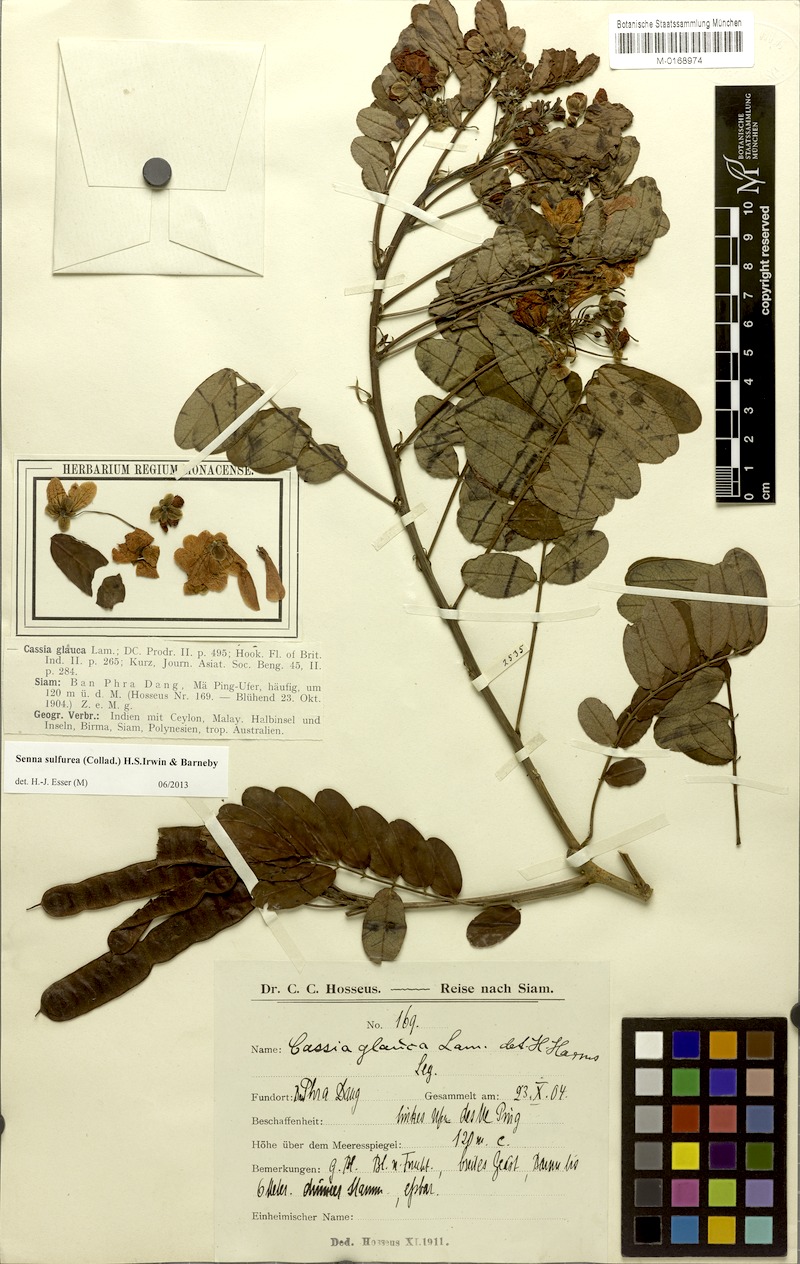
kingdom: Plantae
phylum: Tracheophyta
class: Magnoliopsida
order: Fabales
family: Fabaceae
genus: Senna
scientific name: Senna sulfurea
